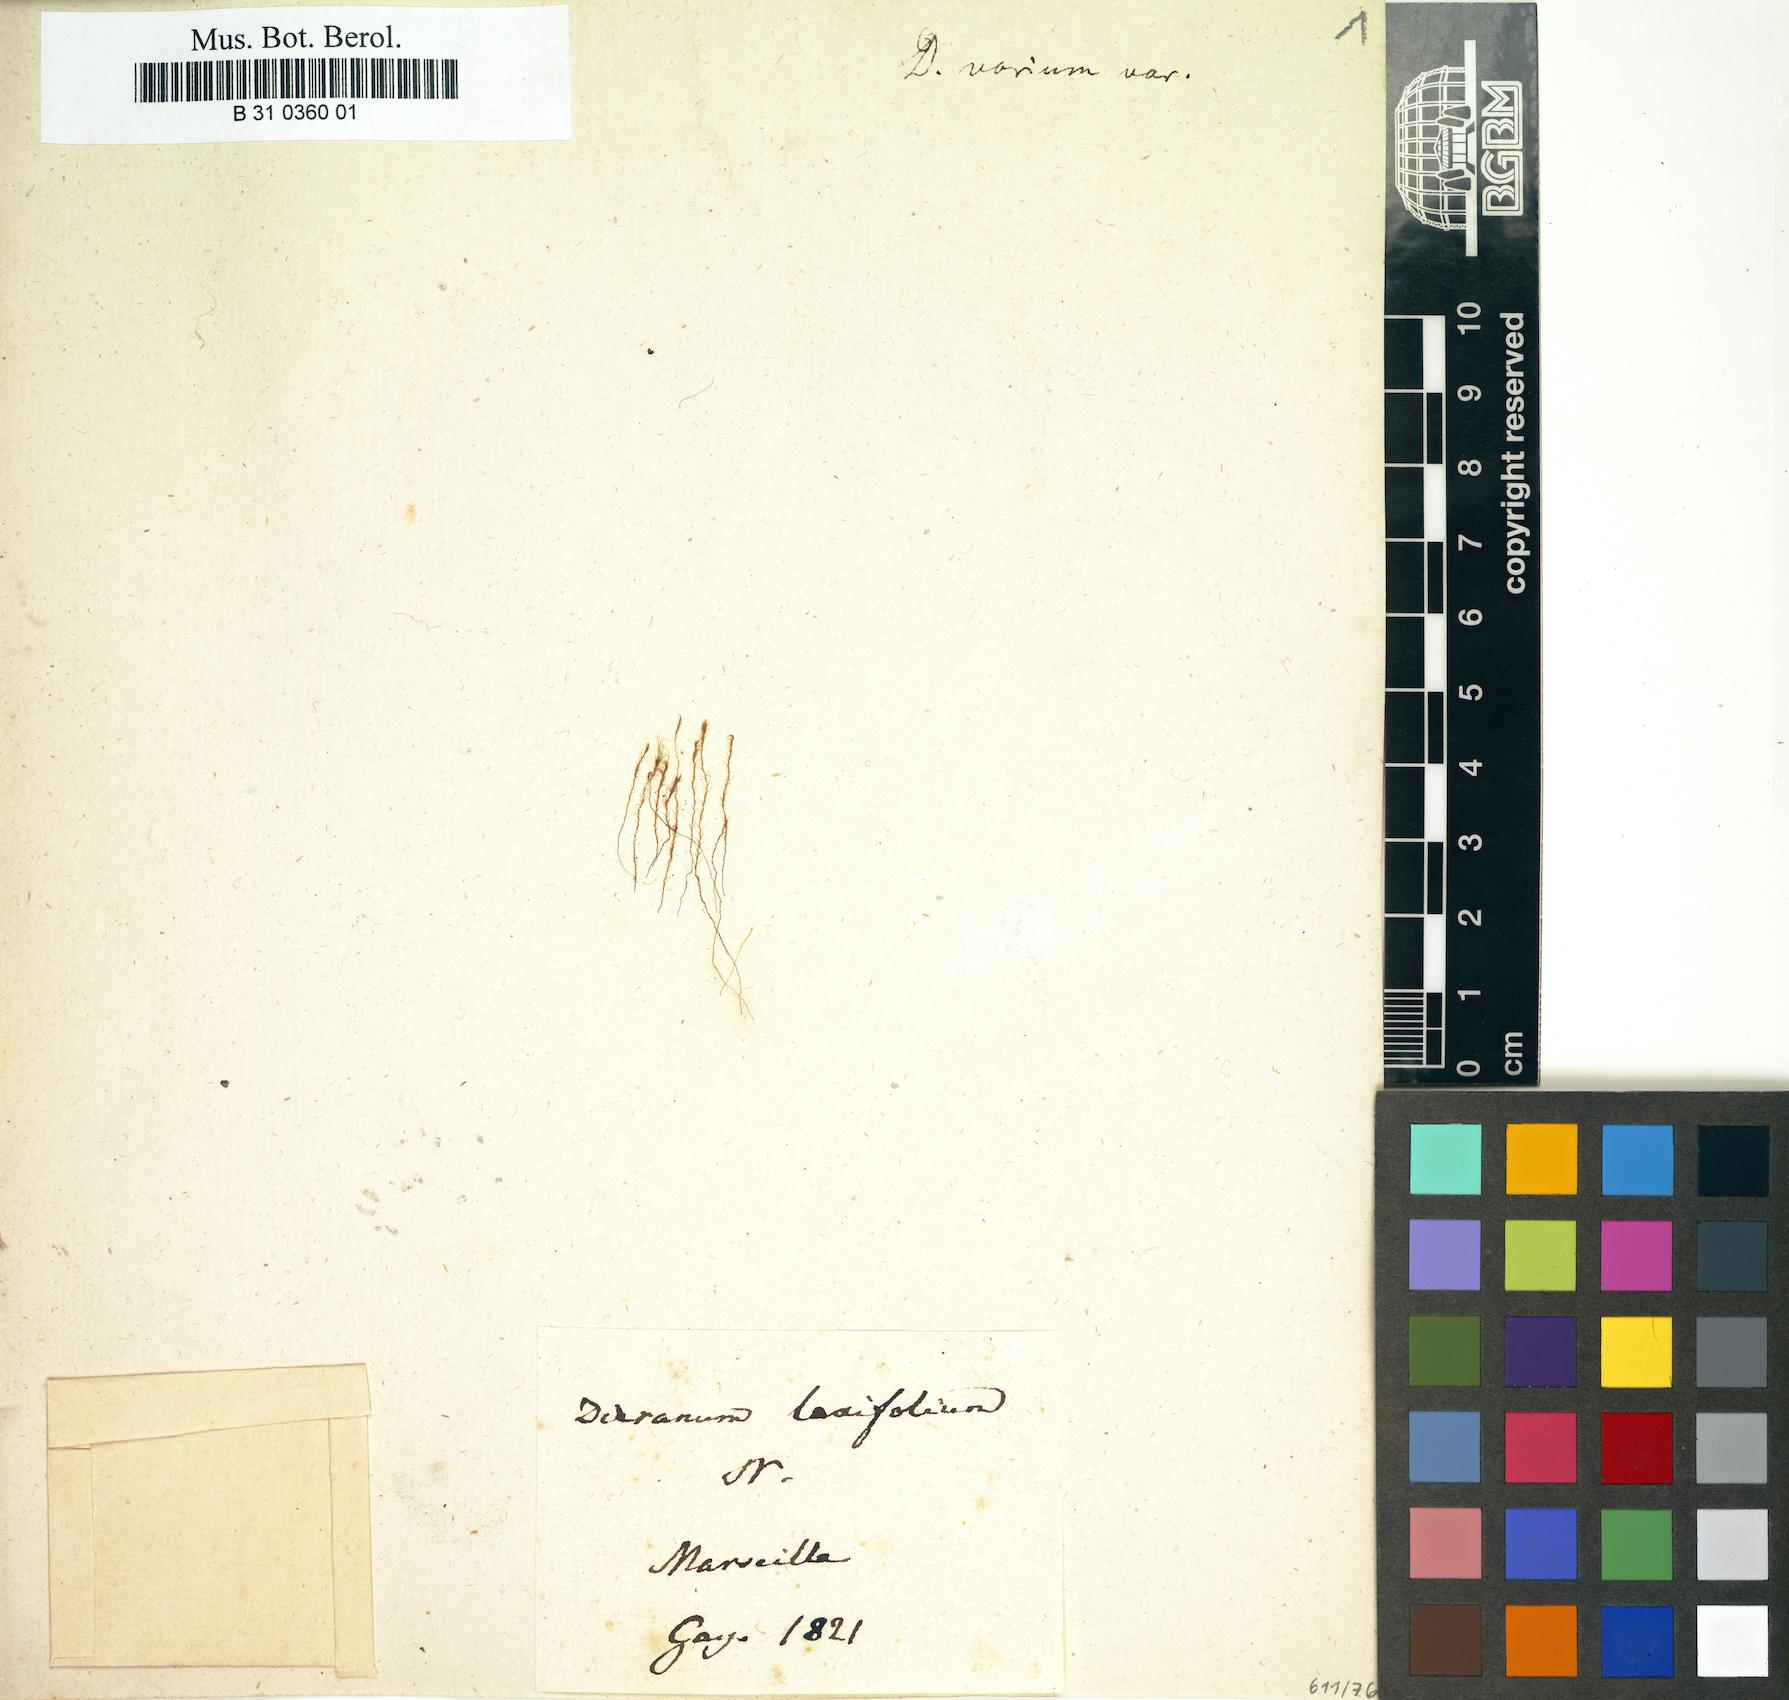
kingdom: Plantae
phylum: Bryophyta
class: Bryopsida
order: Dicranales
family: Dicranaceae
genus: Dicranum
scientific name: Dicranum scoparium
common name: Broom fork-moss
